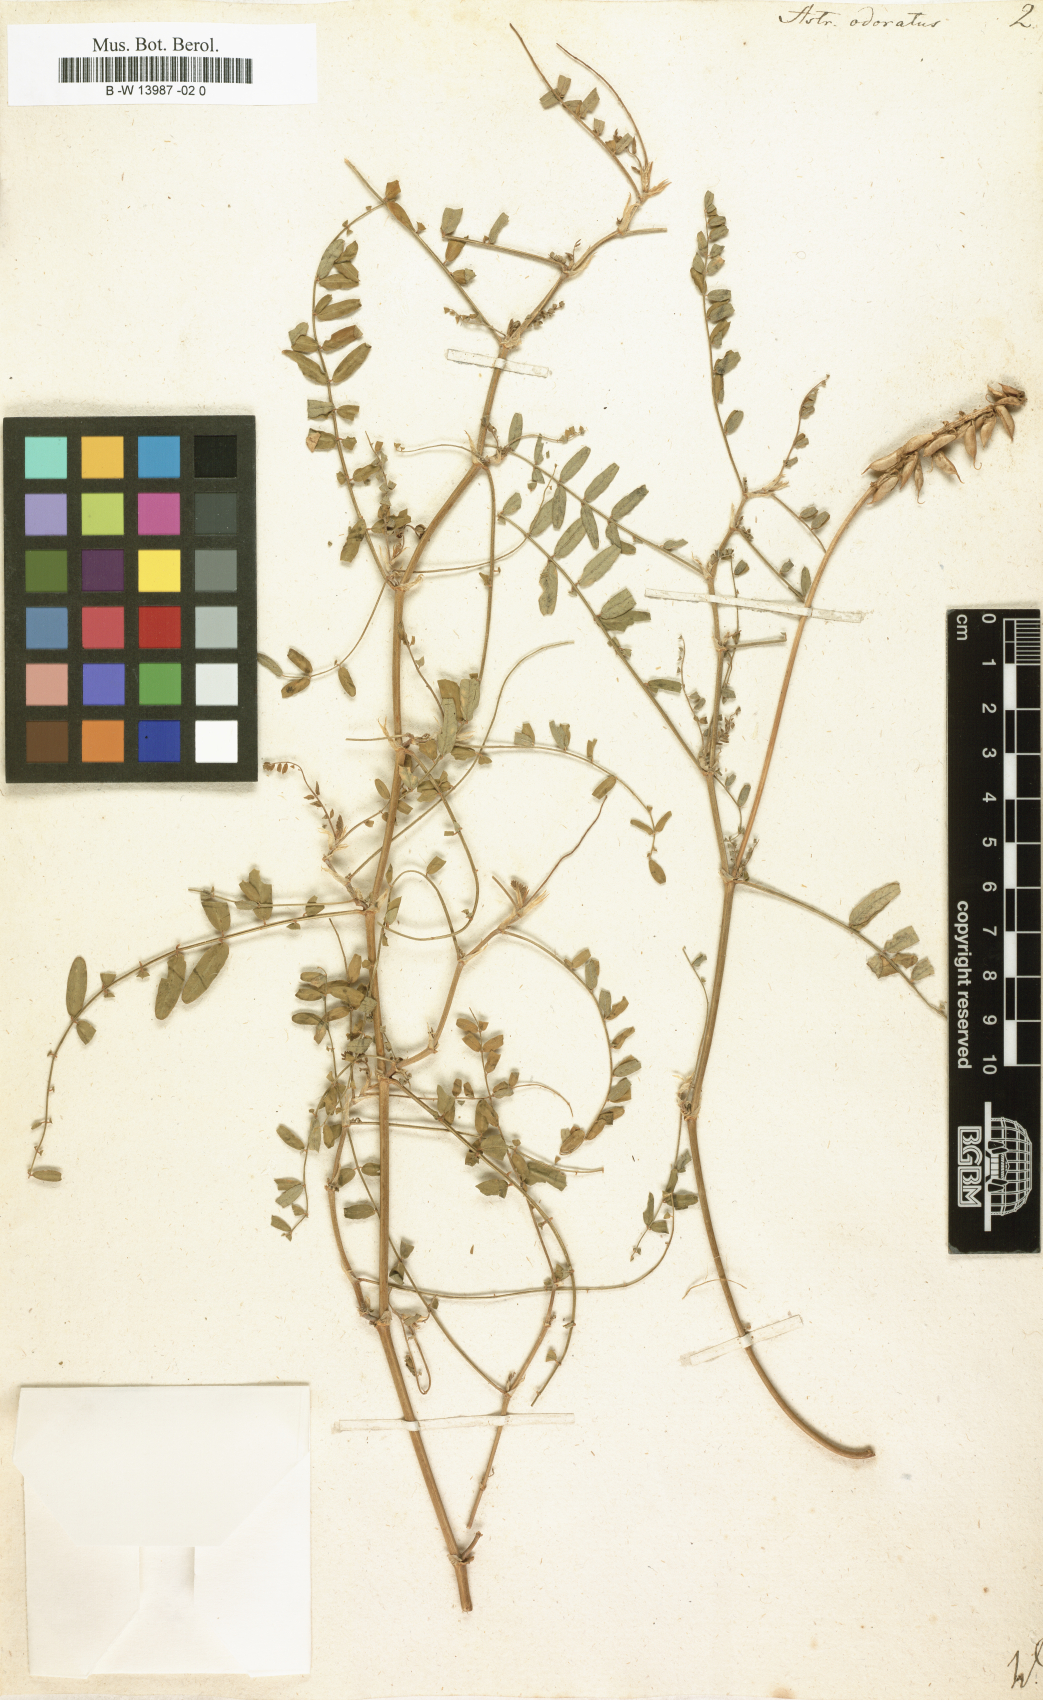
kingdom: Plantae
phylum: Tracheophyta
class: Magnoliopsida
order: Fabales
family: Fabaceae
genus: Astragalus
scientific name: Astragalus odoratus
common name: Lesser milk-vetch
